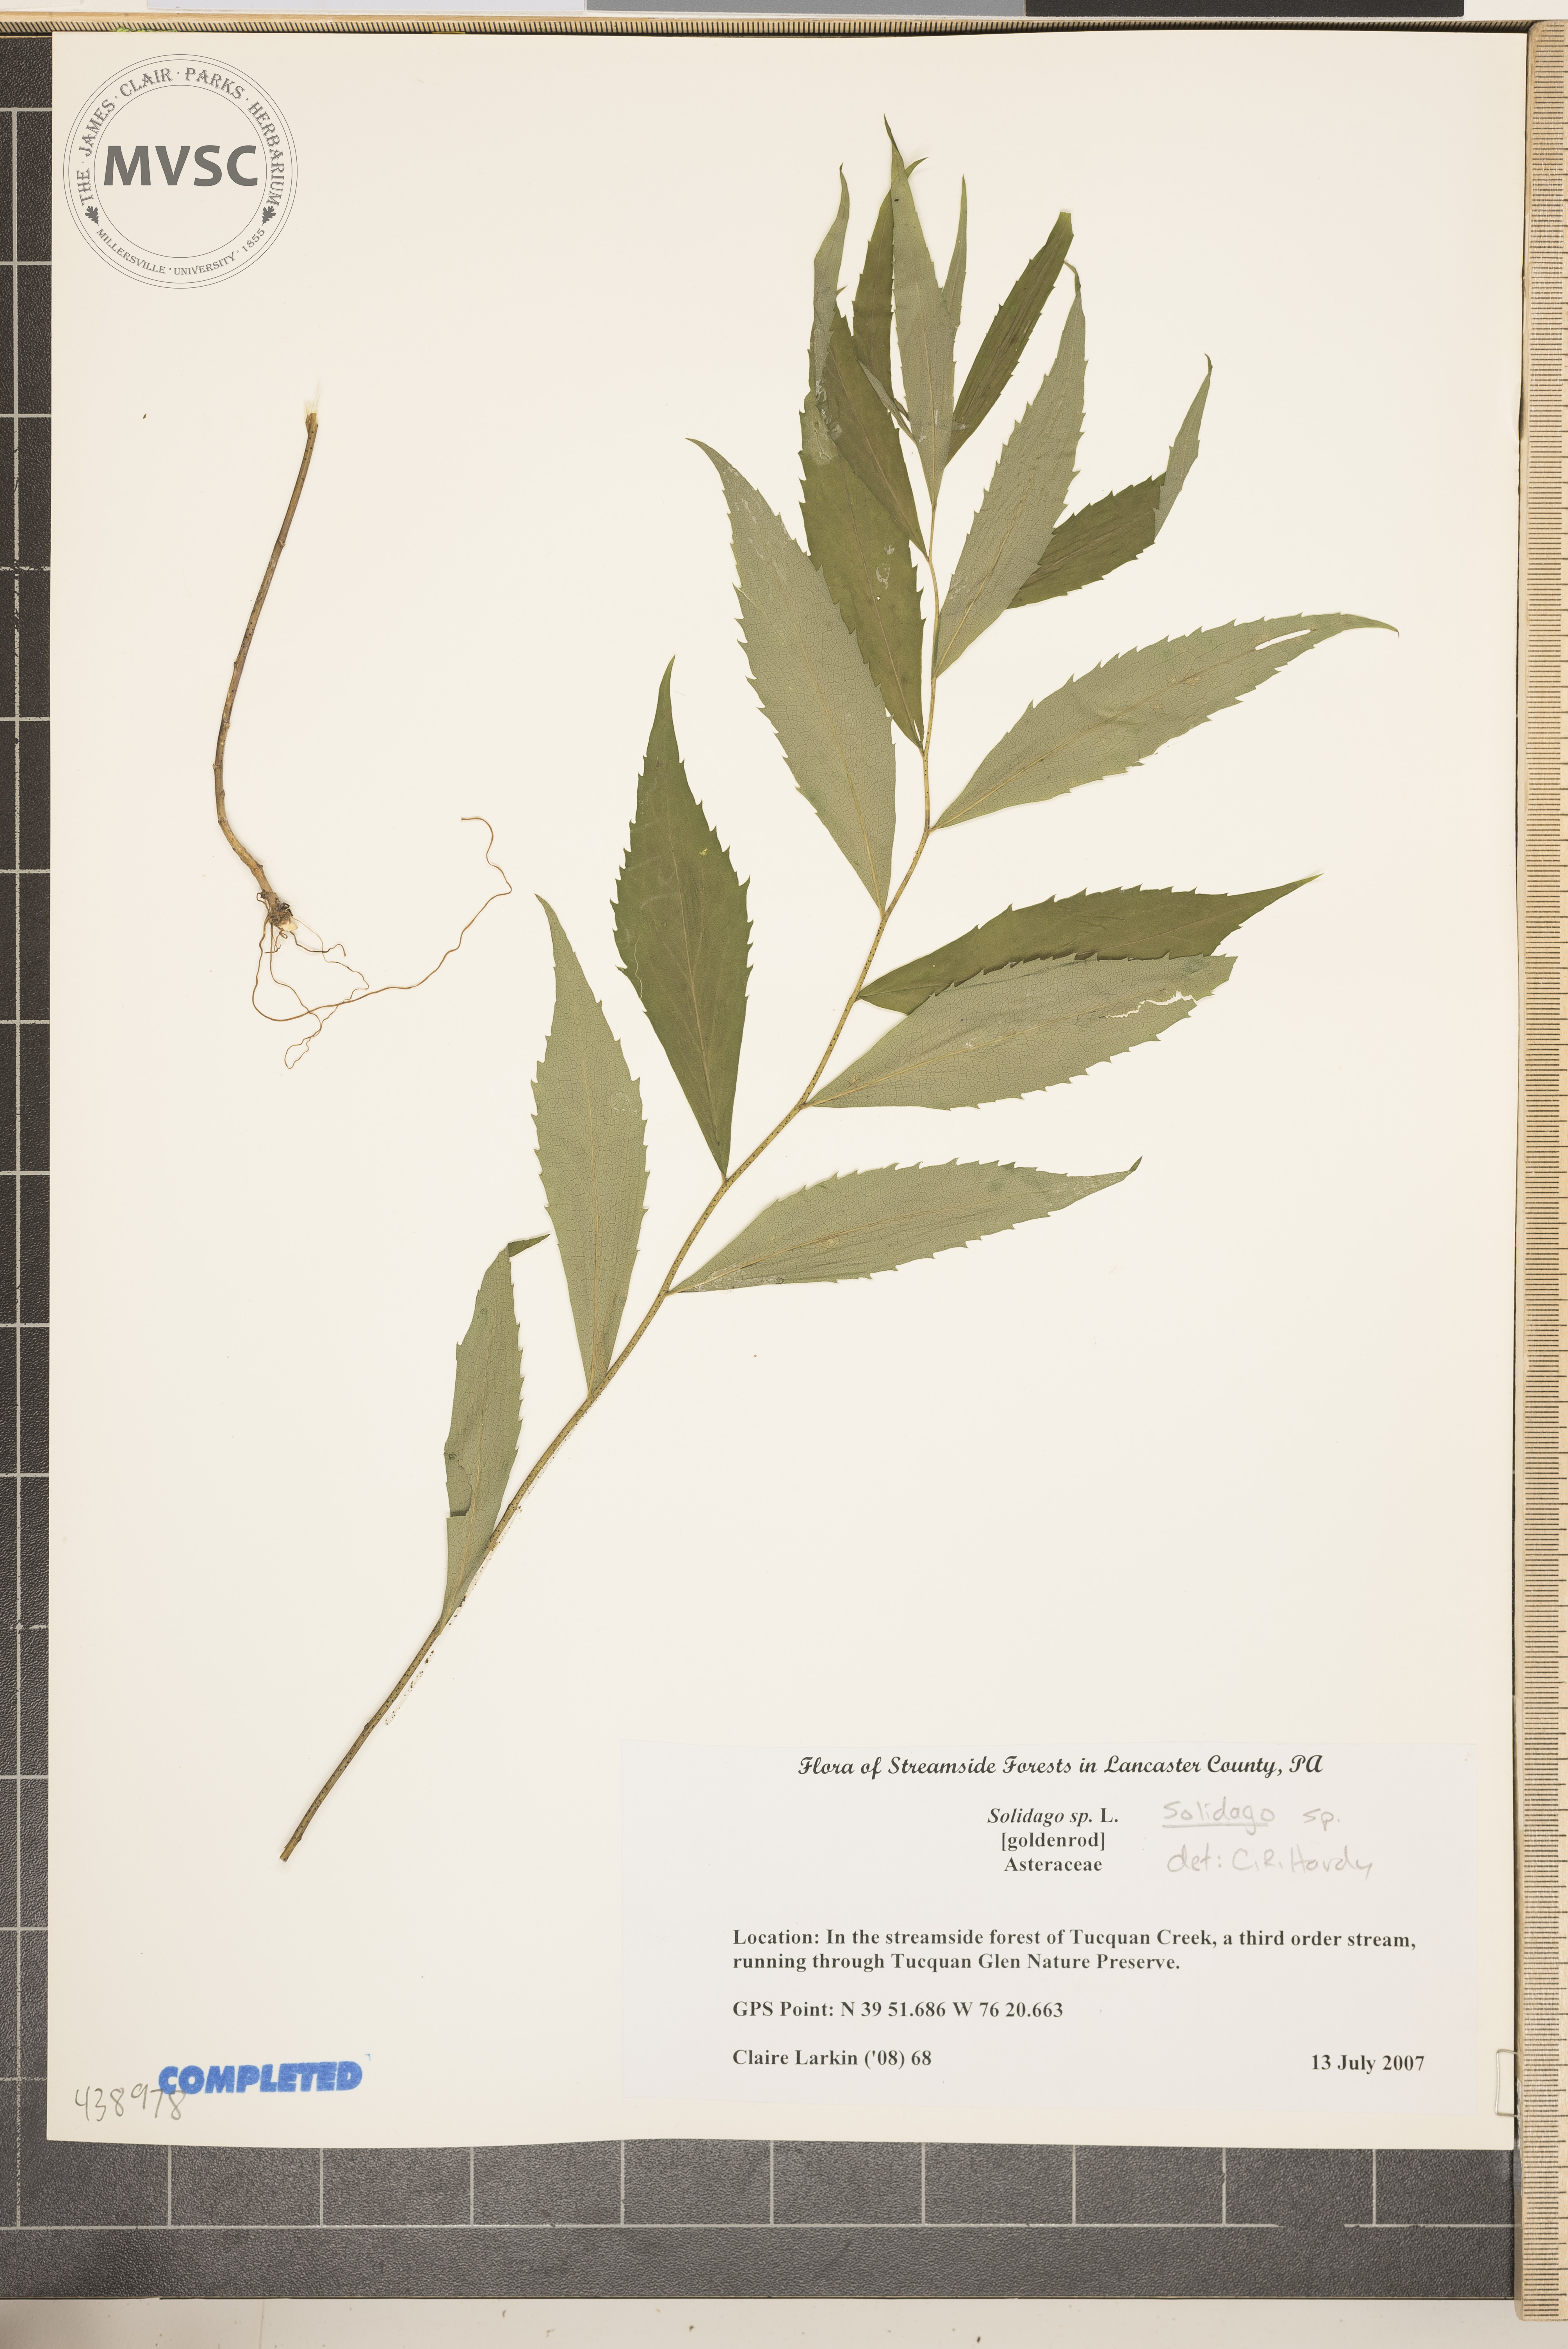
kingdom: Plantae
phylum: Tracheophyta
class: Magnoliopsida
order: Asterales
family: Asteraceae
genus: Solidago
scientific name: Solidago
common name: Goldenrod
